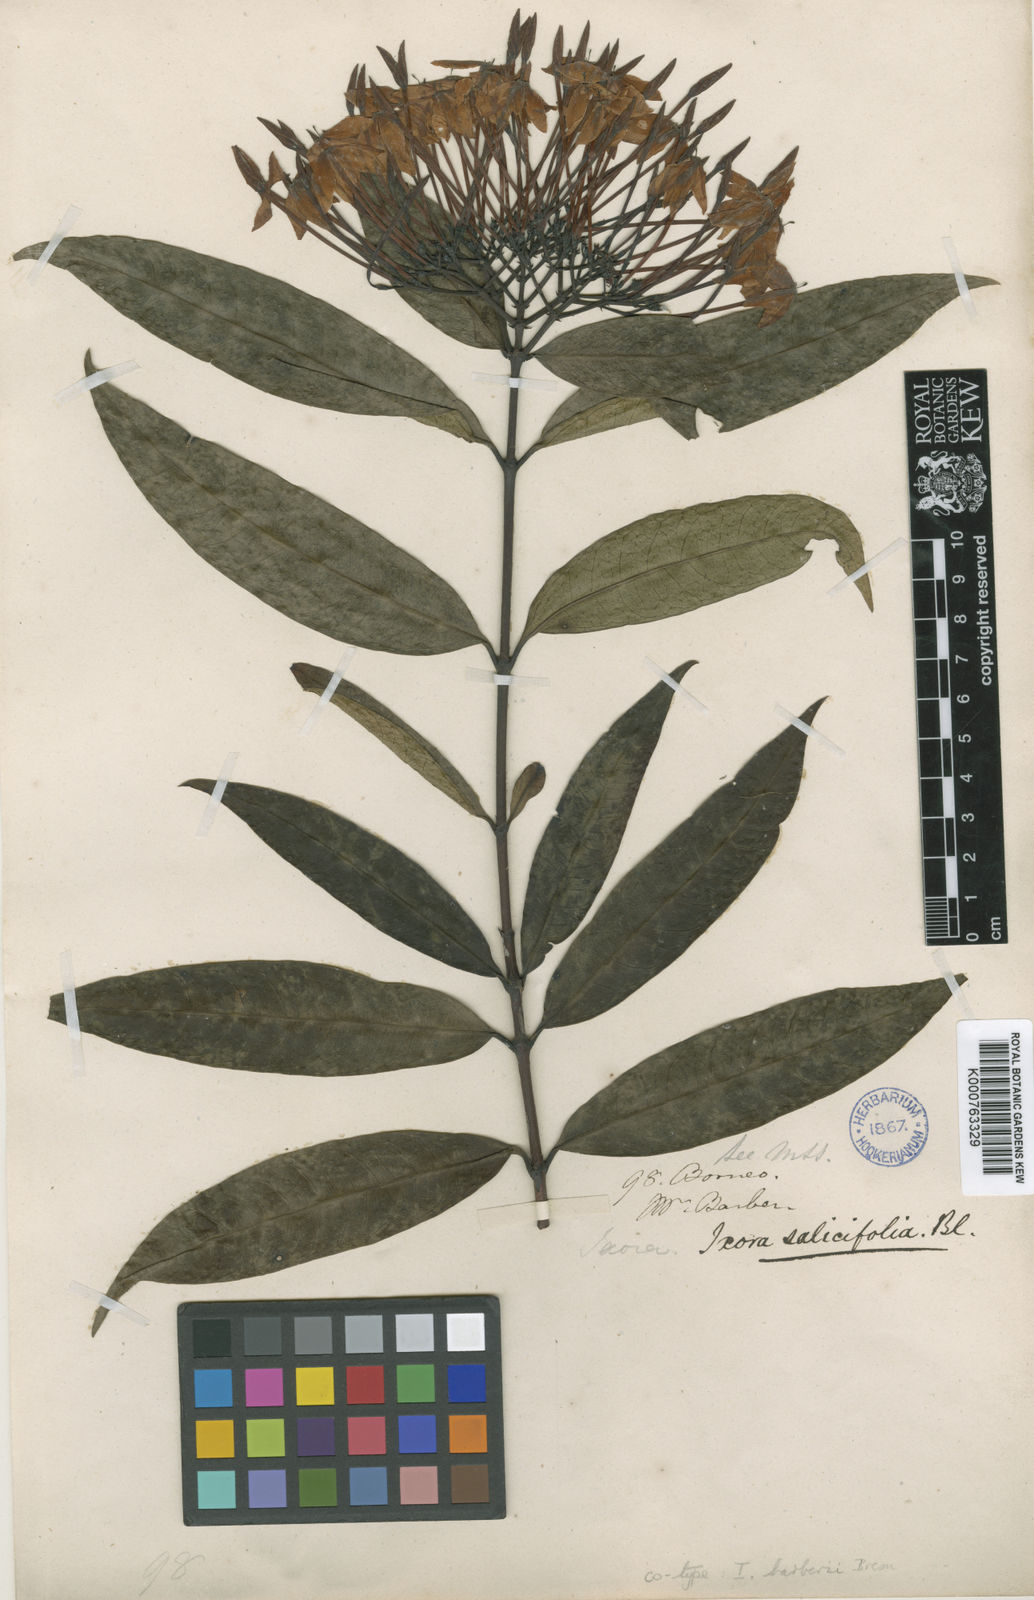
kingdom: Plantae
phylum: Tracheophyta
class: Magnoliopsida
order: Gentianales
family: Rubiaceae
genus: Ixora
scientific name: Ixora barberae
